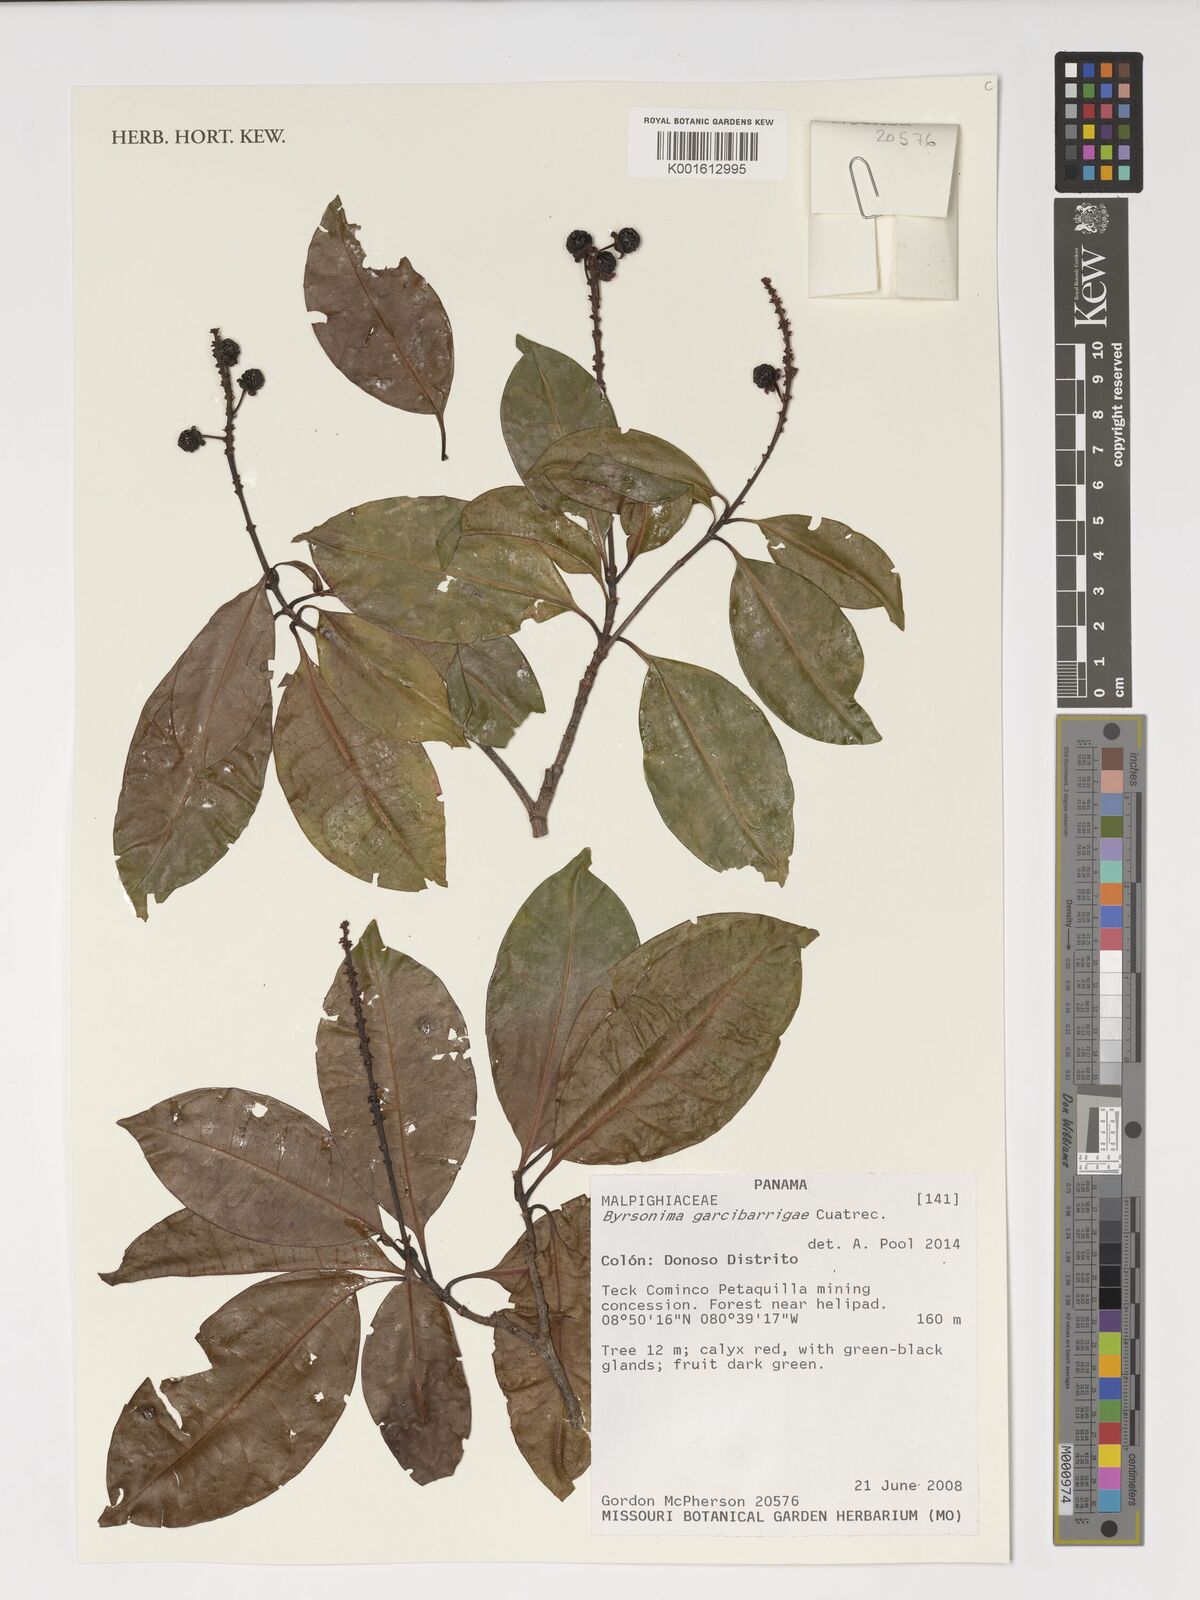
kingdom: Plantae
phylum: Tracheophyta
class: Magnoliopsida
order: Malpighiales
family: Malpighiaceae
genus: Byrsonima
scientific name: Byrsonima garcibarrigae
